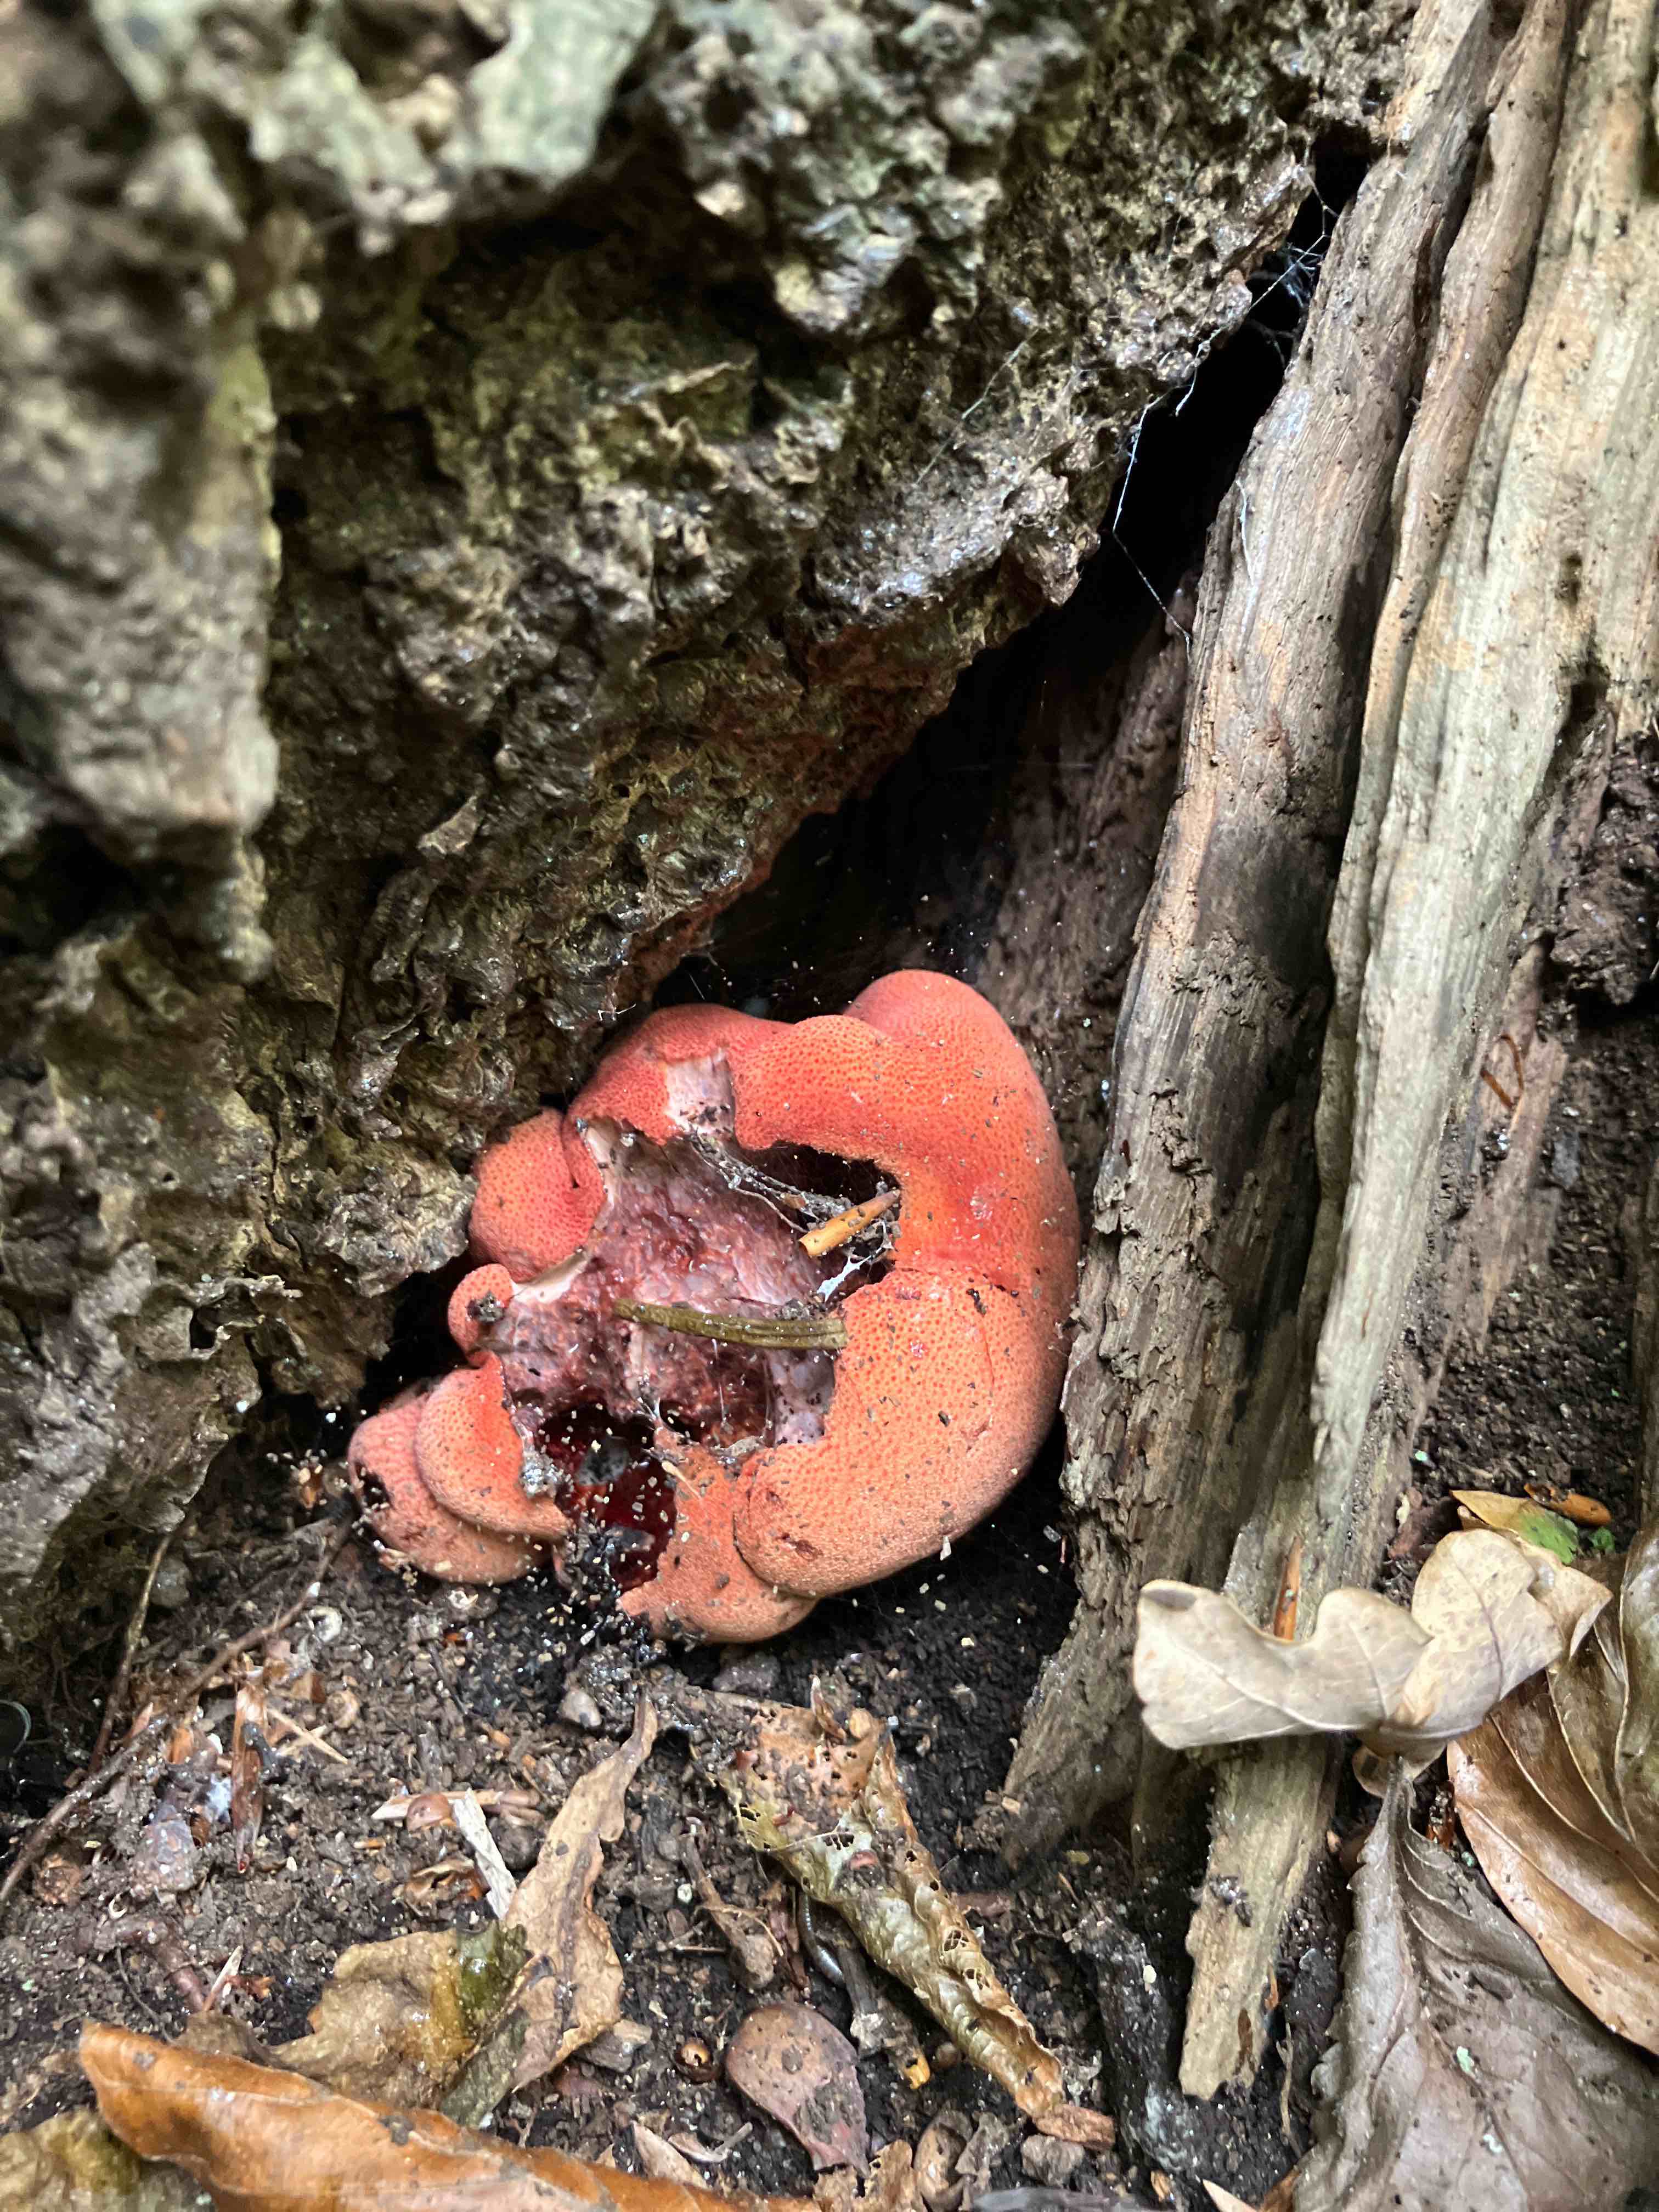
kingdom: Fungi
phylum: Basidiomycota
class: Agaricomycetes
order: Agaricales
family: Fistulinaceae
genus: Fistulina
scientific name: Fistulina hepatica
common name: oksetunge
